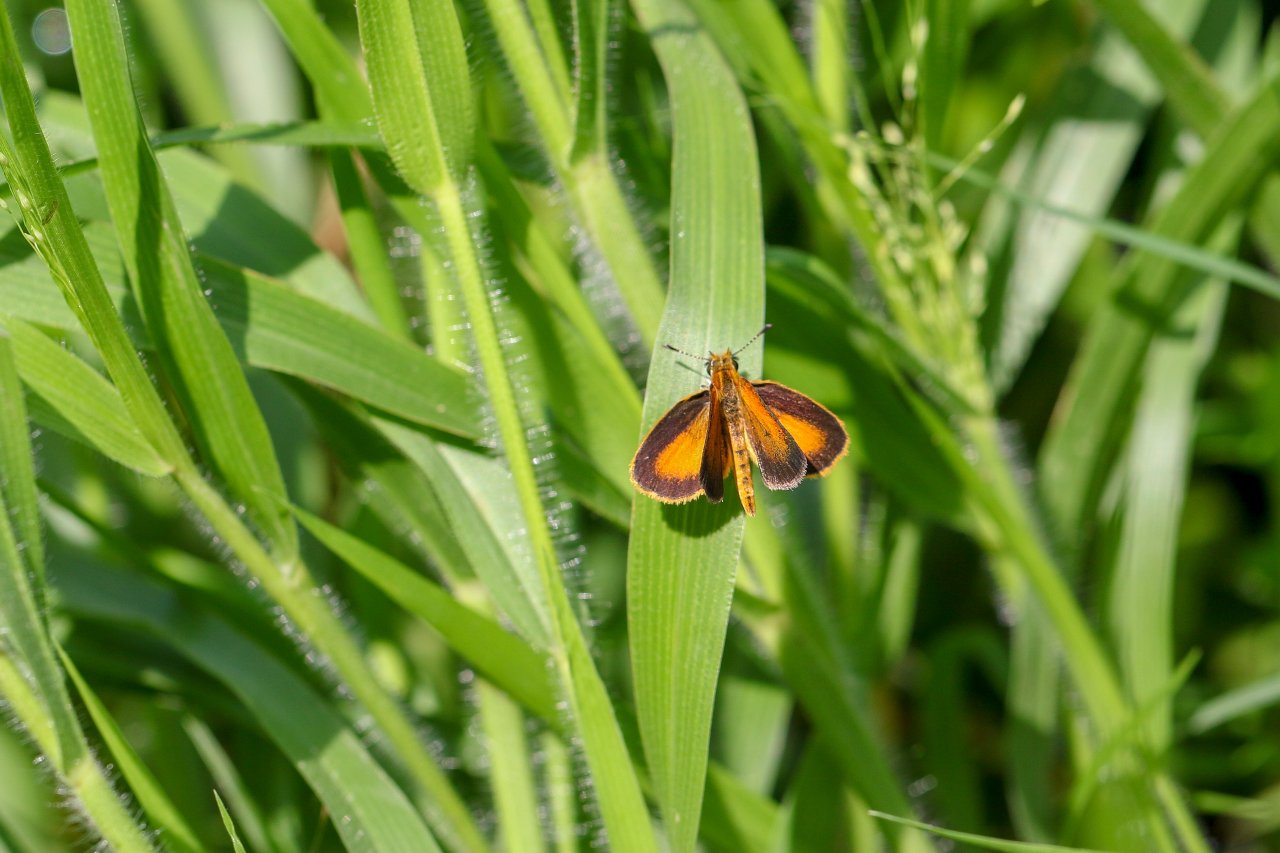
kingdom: Animalia
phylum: Arthropoda
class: Insecta
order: Lepidoptera
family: Hesperiidae
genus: Ancyloxypha
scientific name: Ancyloxypha numitor
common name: Least Skipper
